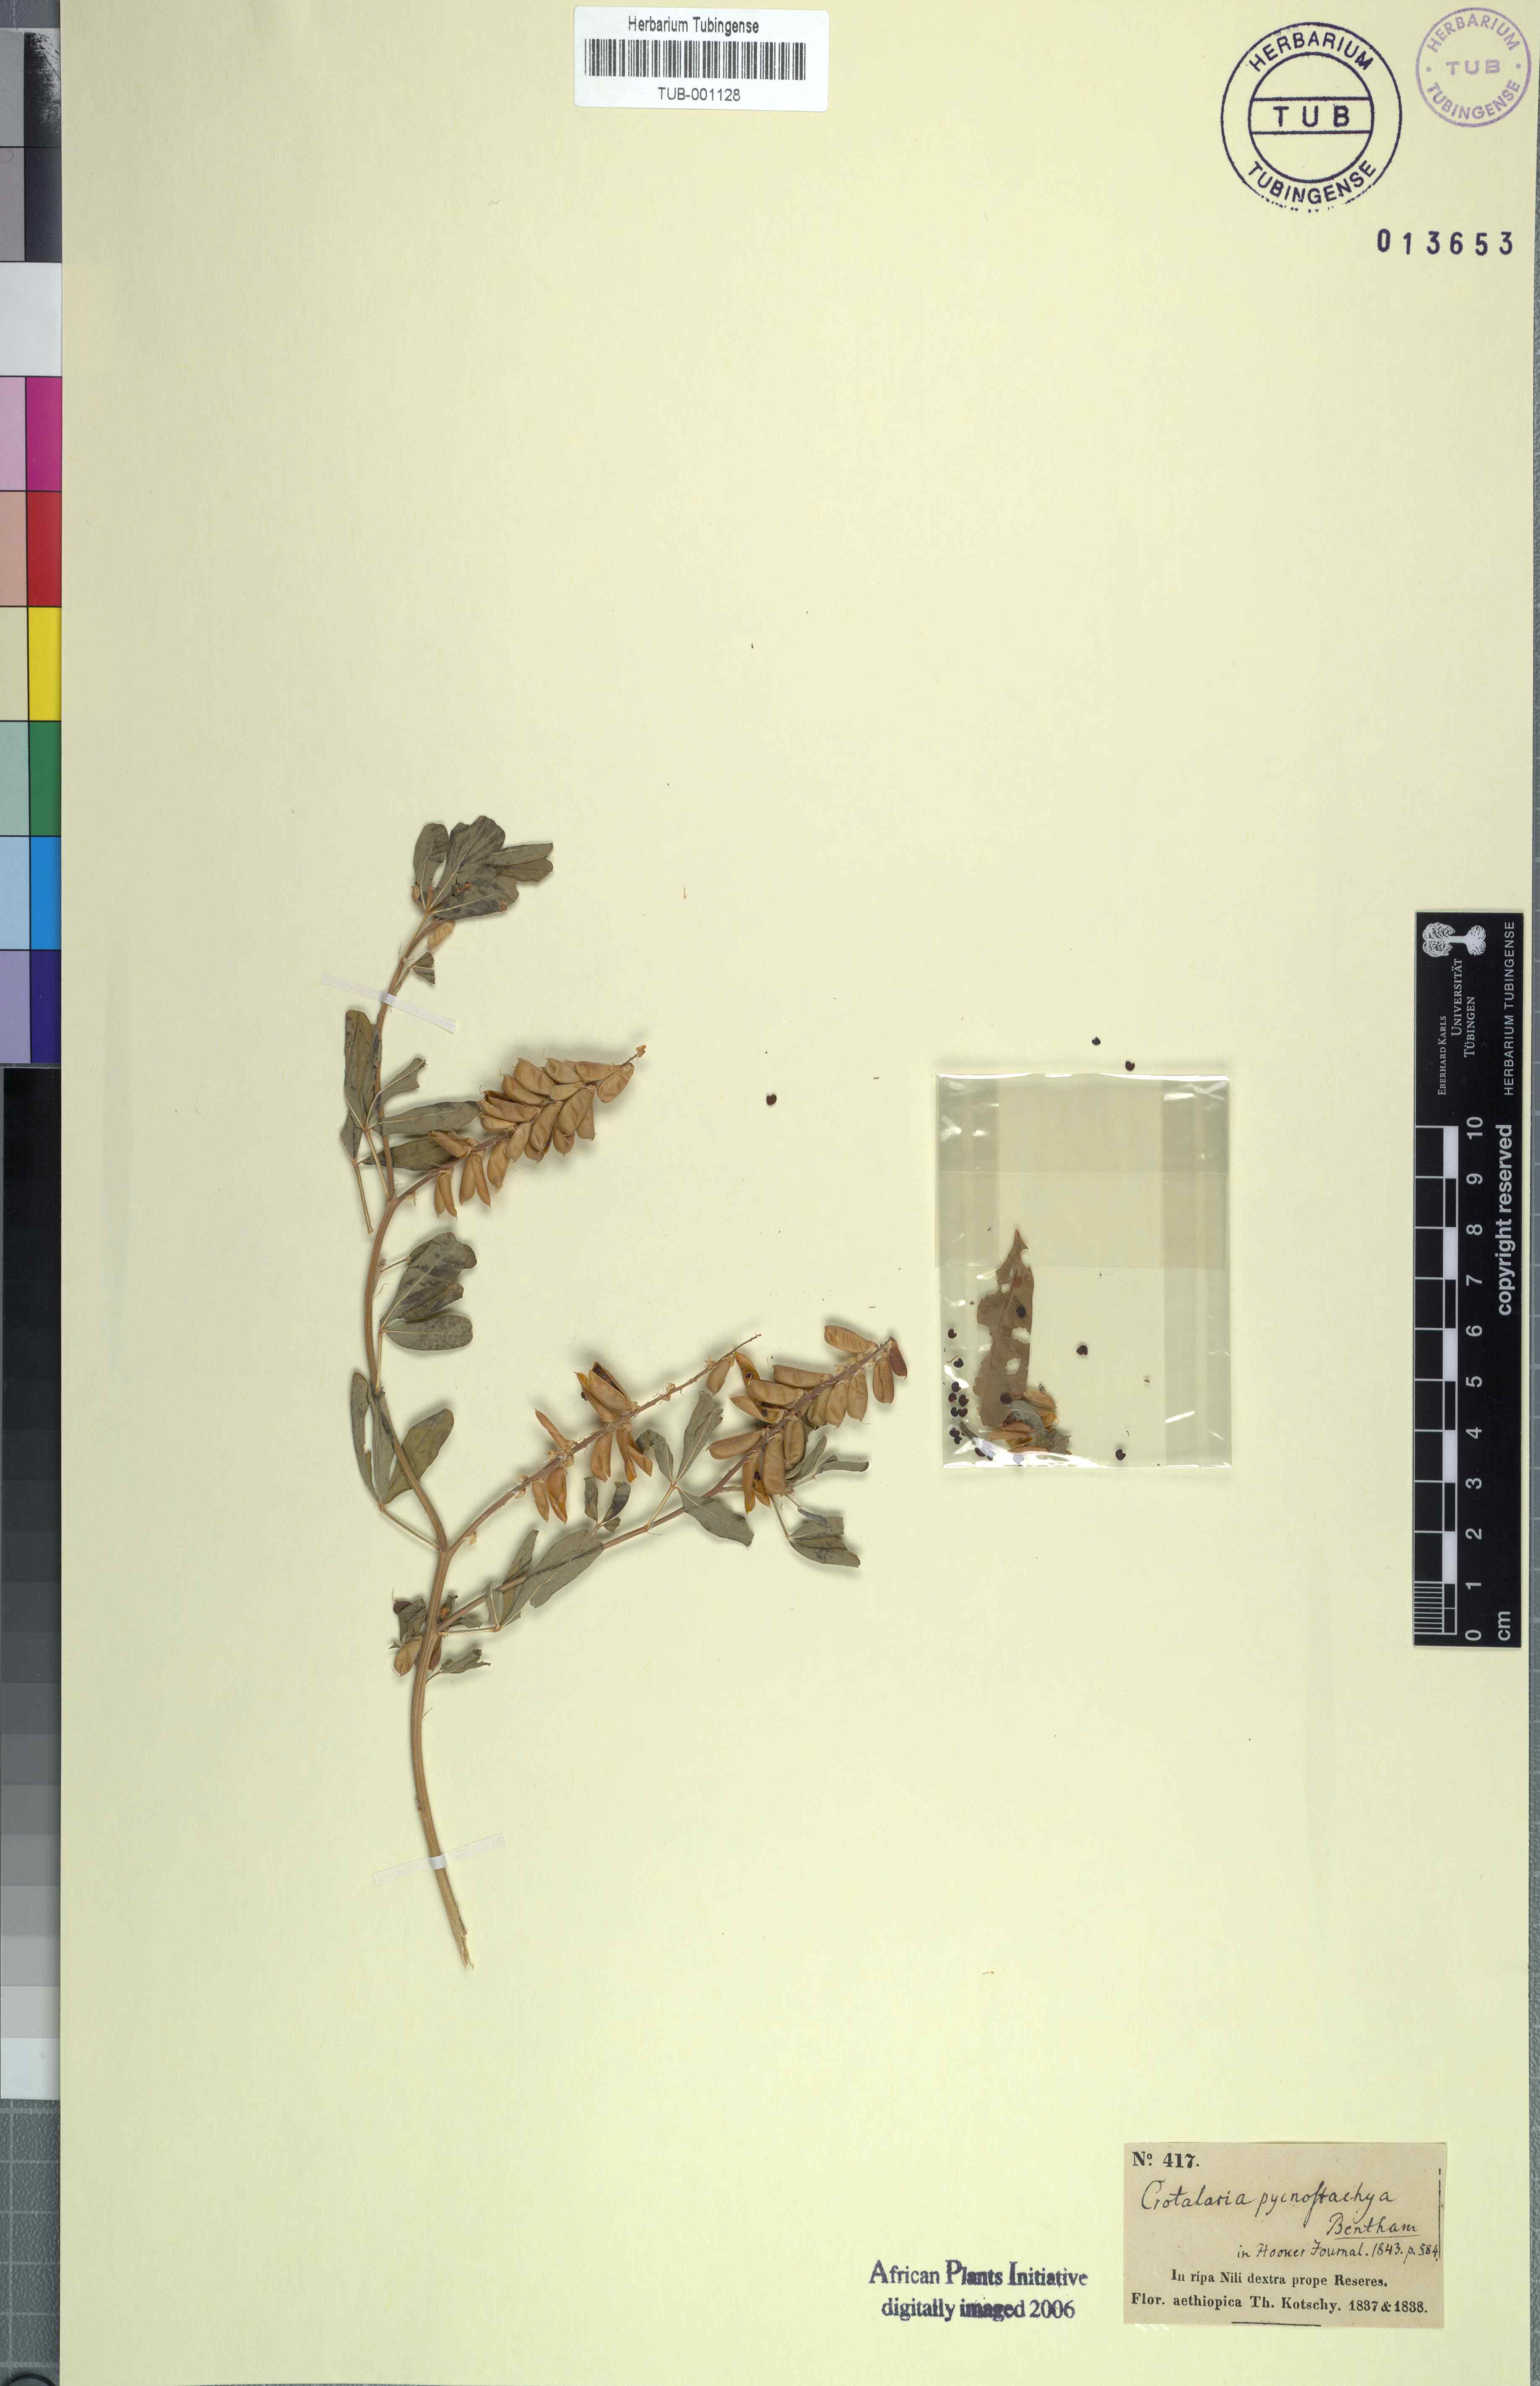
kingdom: Plantae
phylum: Tracheophyta
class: Magnoliopsida
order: Fabales
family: Fabaceae
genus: Crotalaria
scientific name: Crotalaria pycnostachya
